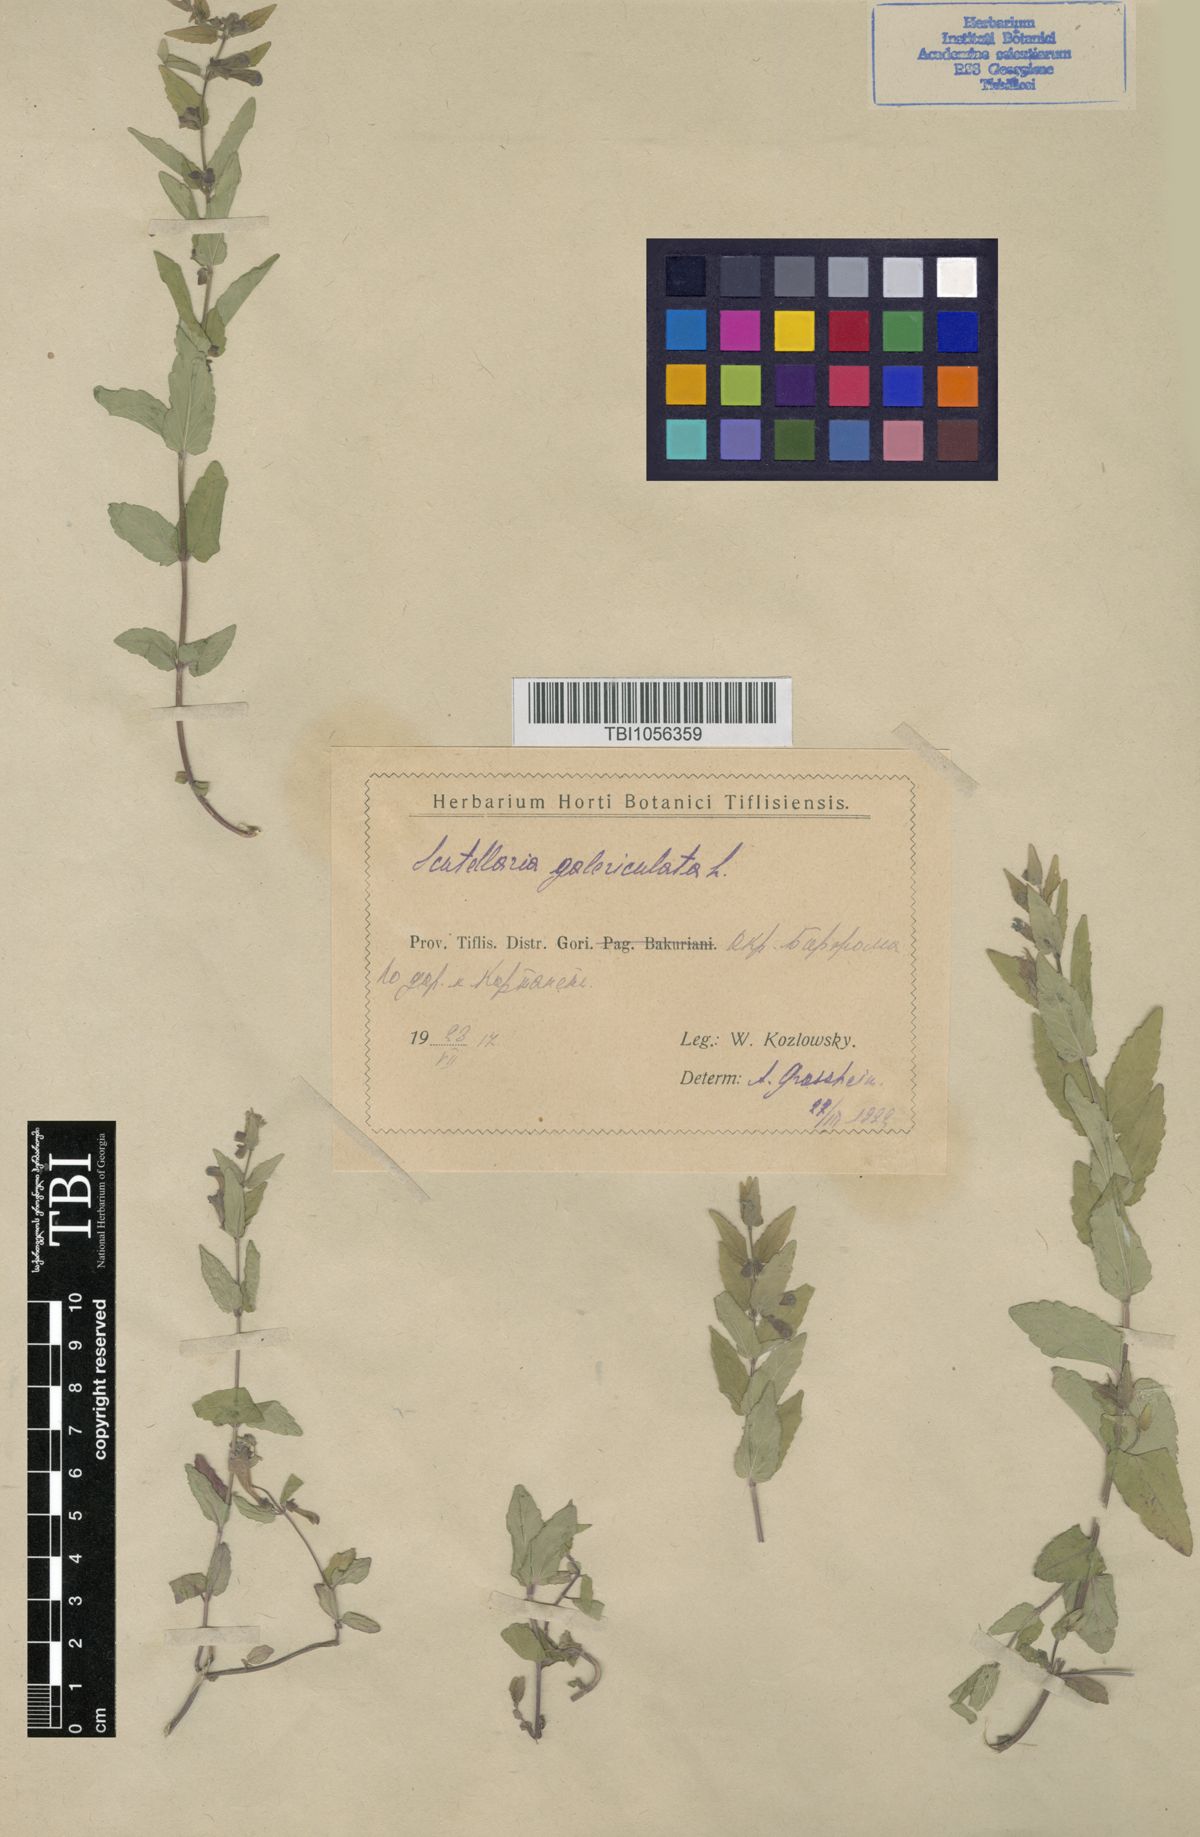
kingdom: Plantae
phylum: Tracheophyta
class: Magnoliopsida
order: Lamiales
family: Lamiaceae
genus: Scutellaria
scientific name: Scutellaria galericulata
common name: Skullcap
